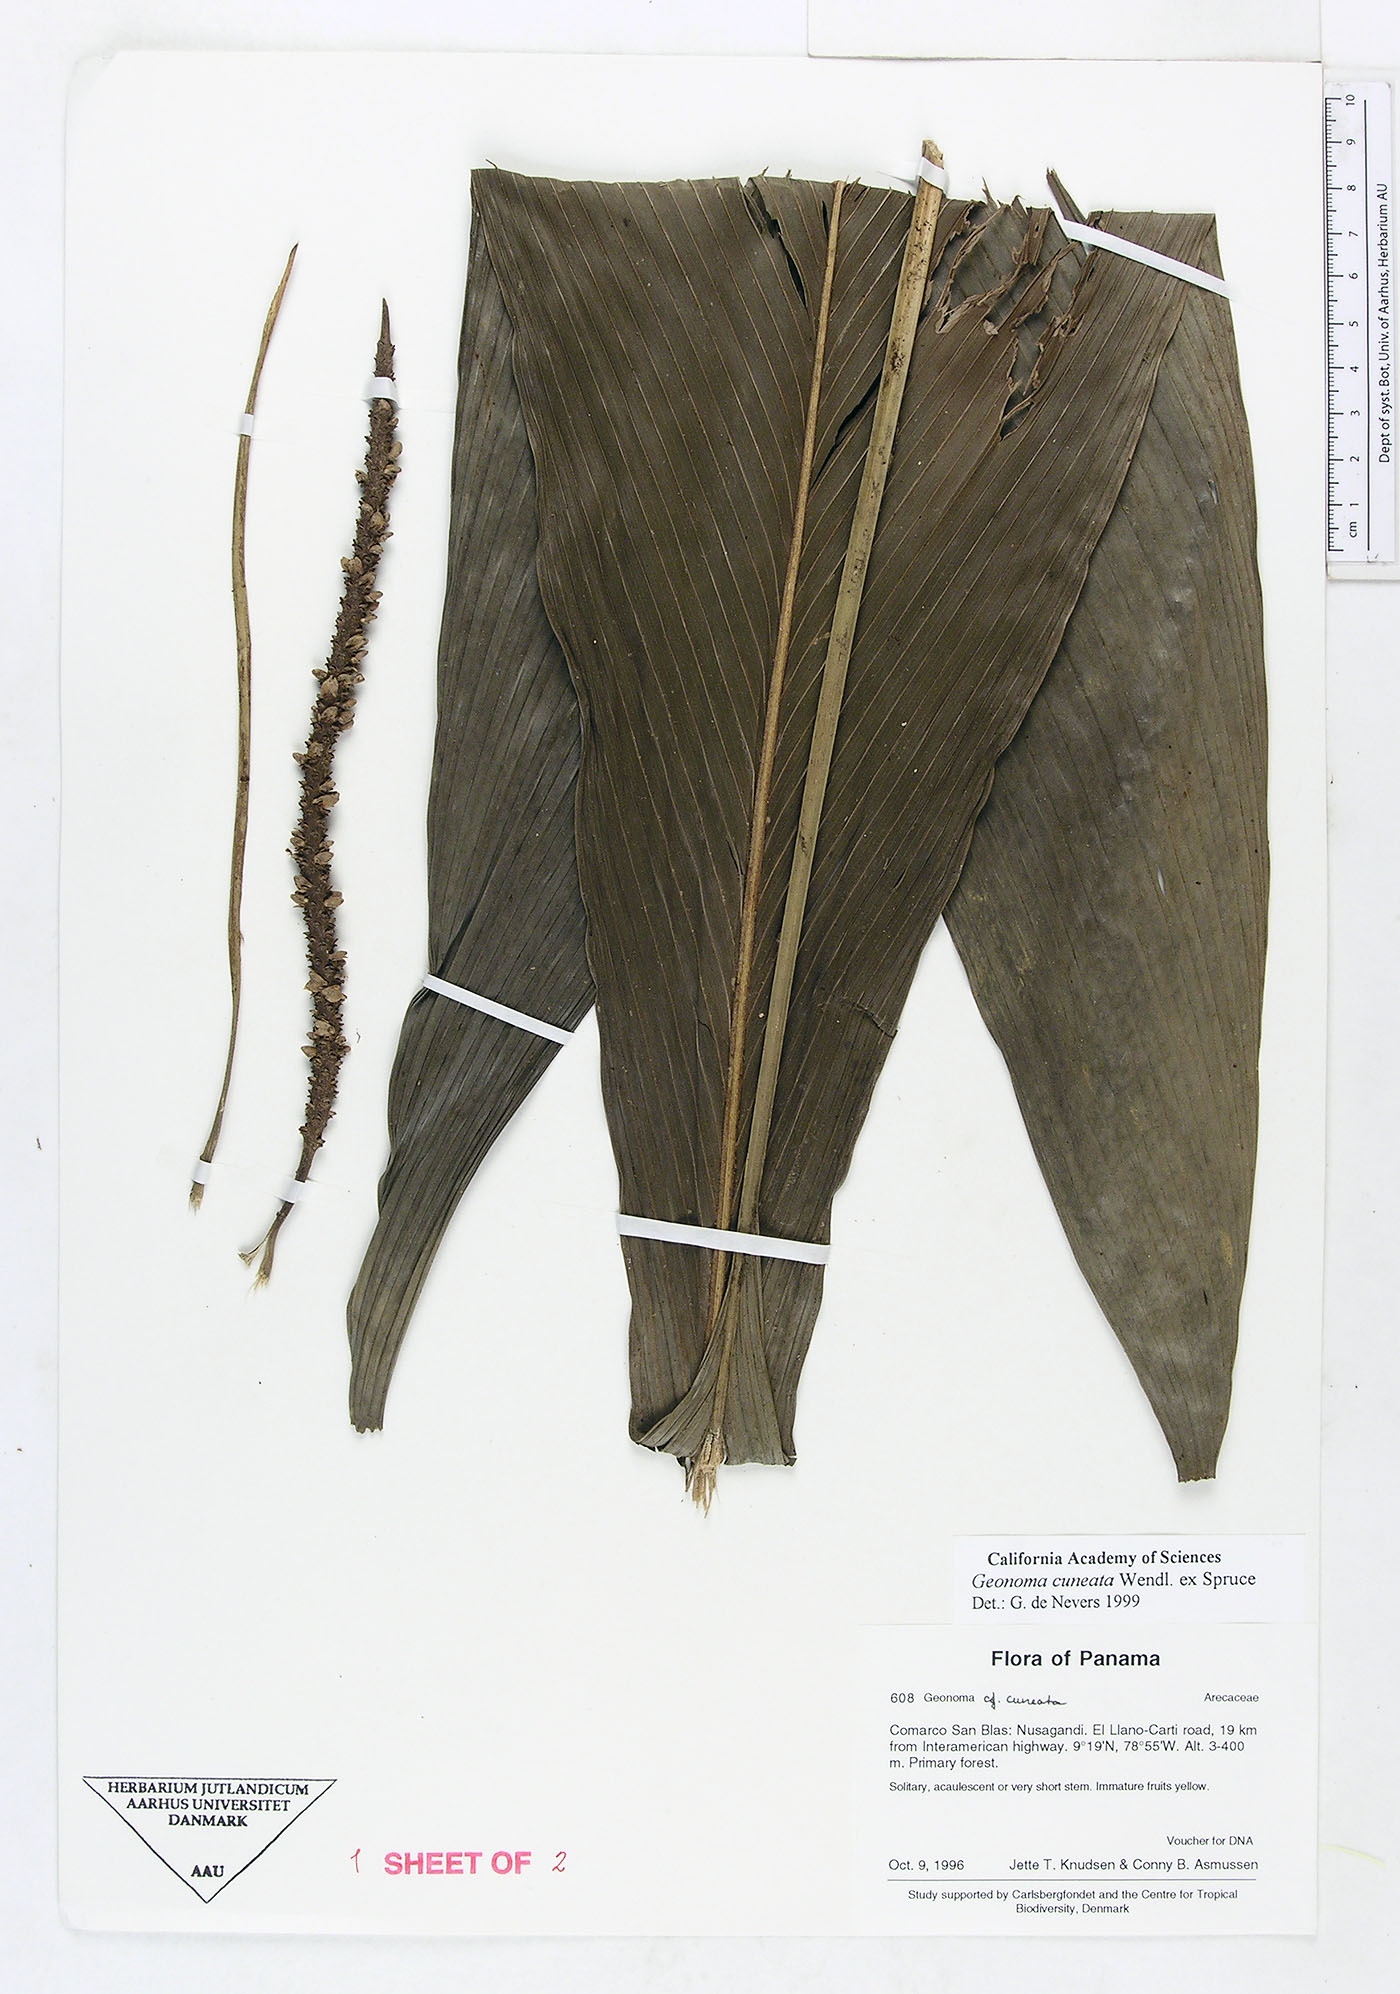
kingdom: Plantae
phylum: Tracheophyta
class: Liliopsida
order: Arecales
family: Arecaceae
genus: Geonoma
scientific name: Geonoma cuneata
